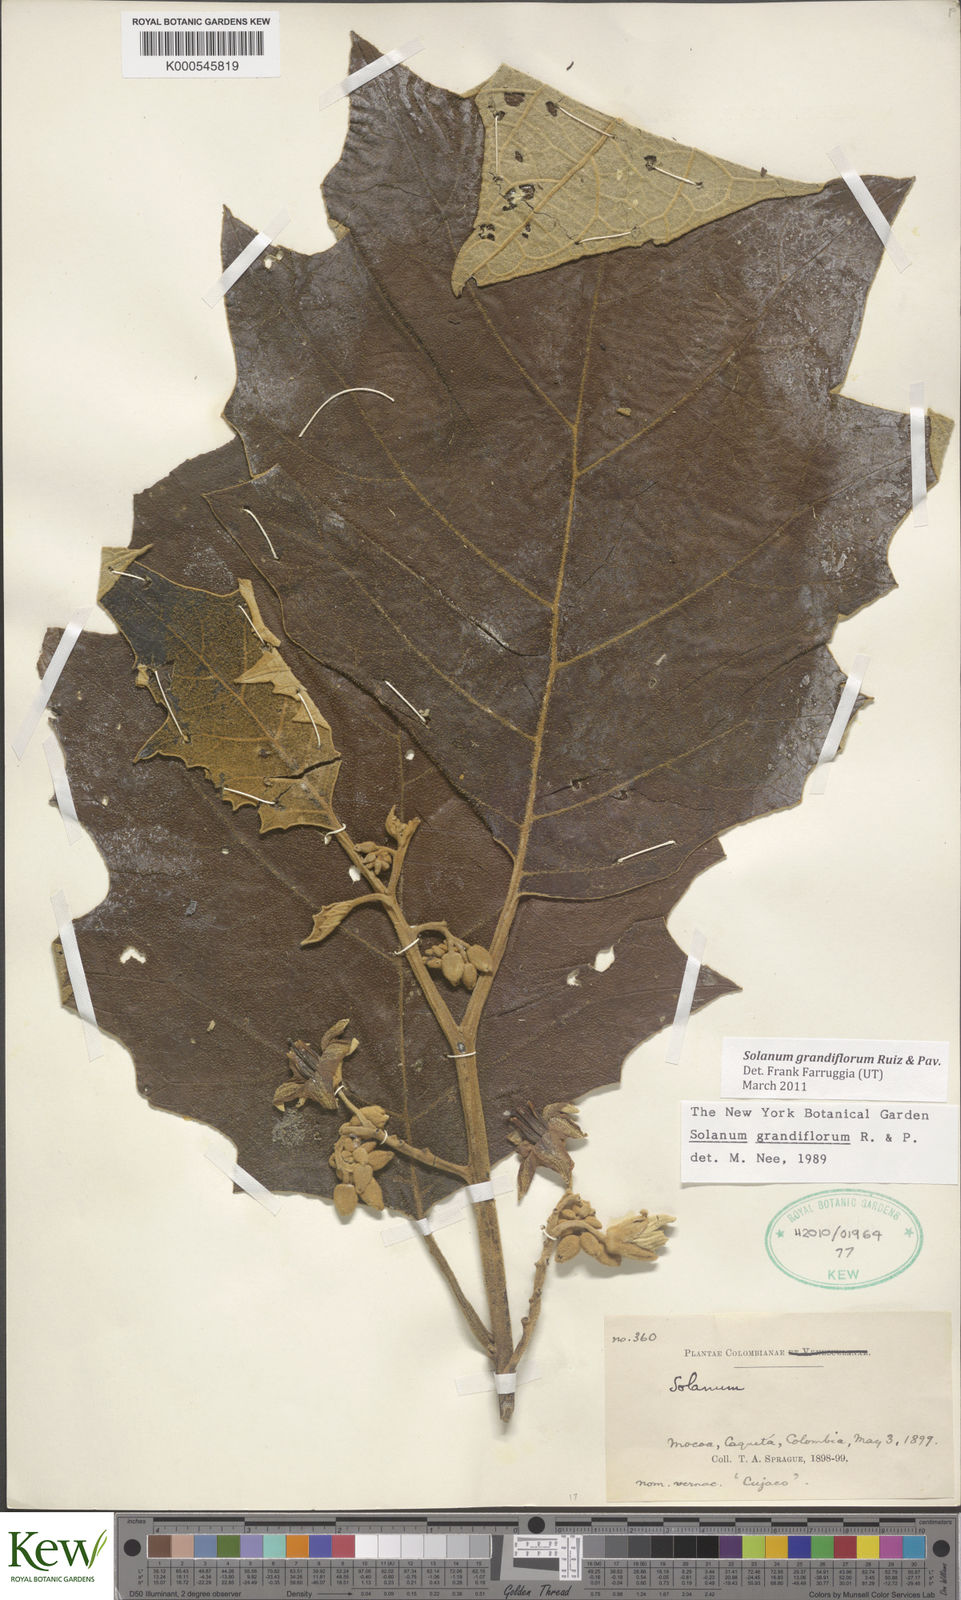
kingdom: Plantae
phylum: Tracheophyta
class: Magnoliopsida
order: Solanales
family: Solanaceae
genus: Solanum
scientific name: Solanum grandiflorum
